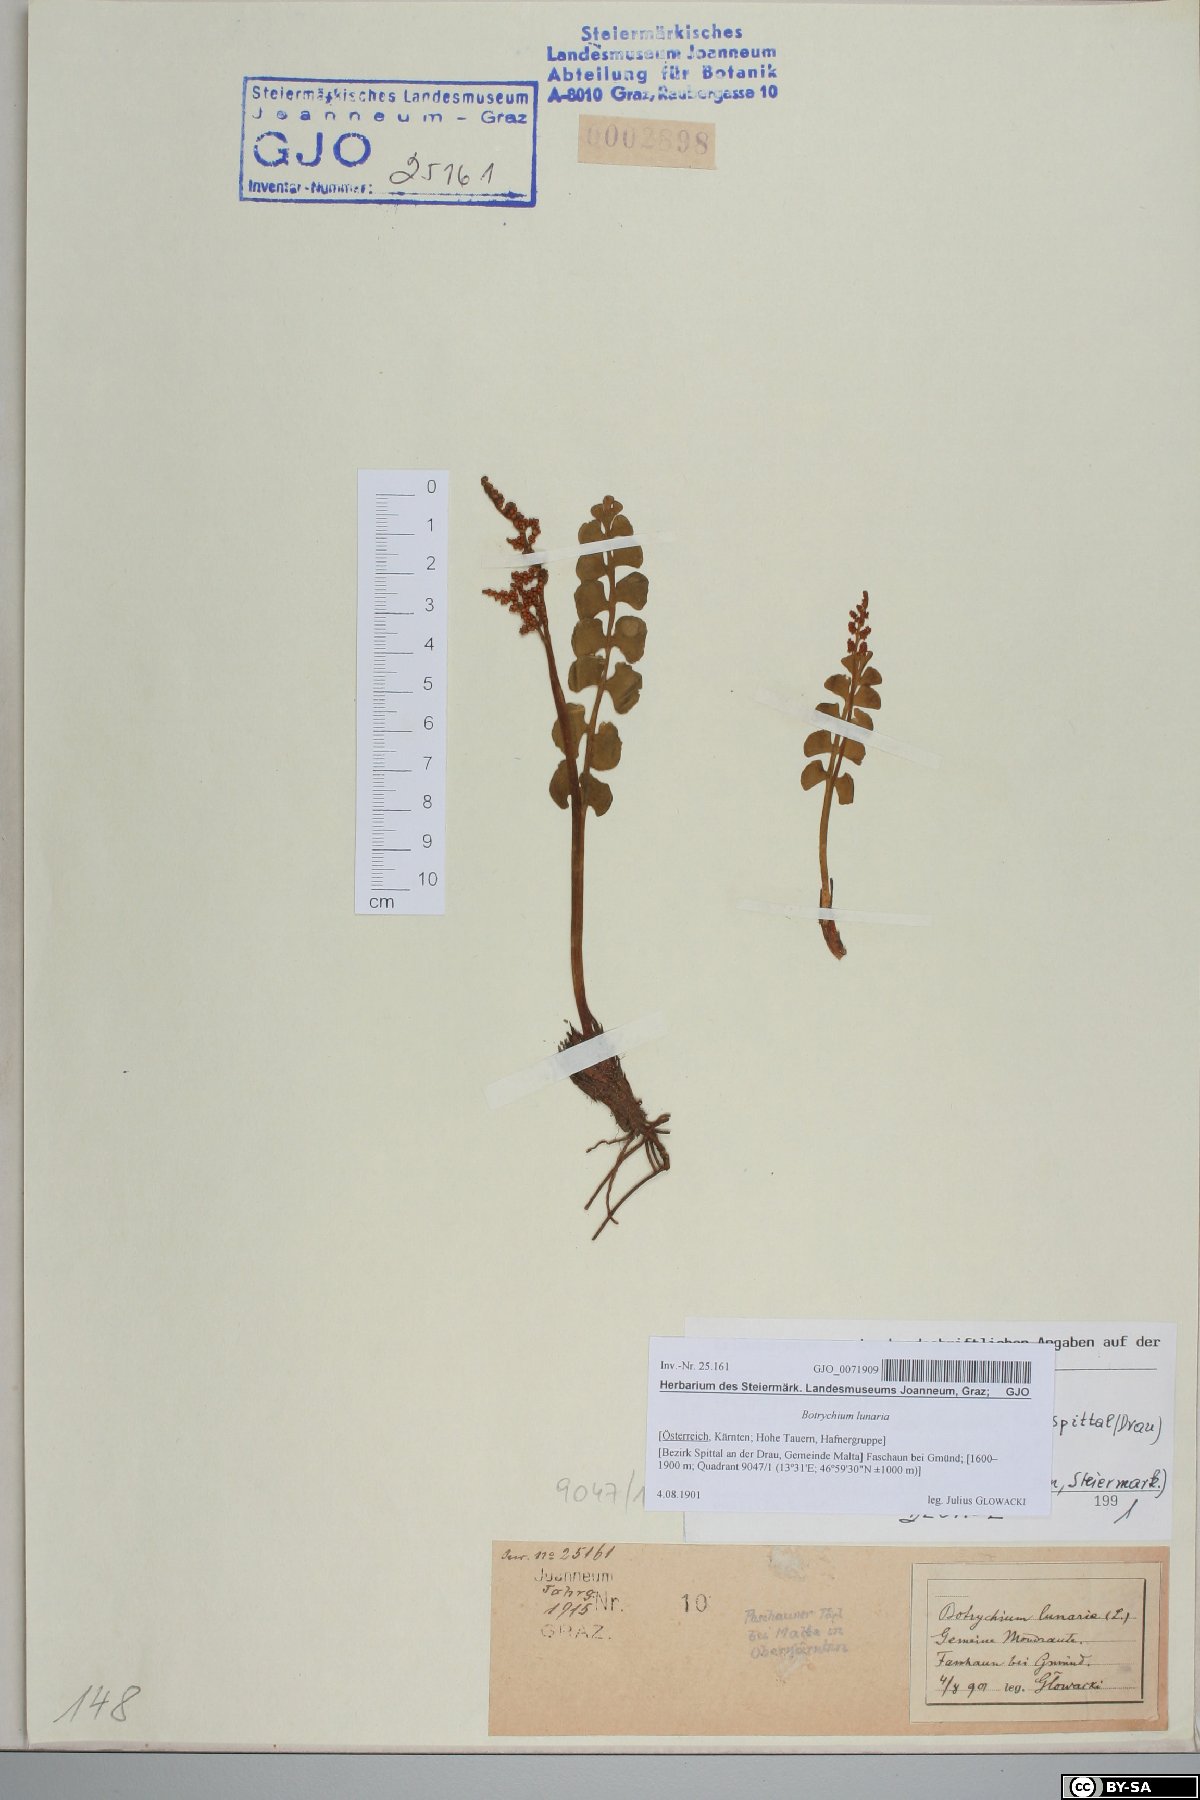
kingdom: Plantae
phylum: Tracheophyta
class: Polypodiopsida
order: Ophioglossales
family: Ophioglossaceae
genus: Botrychium
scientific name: Botrychium lunaria
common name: Moonwort
